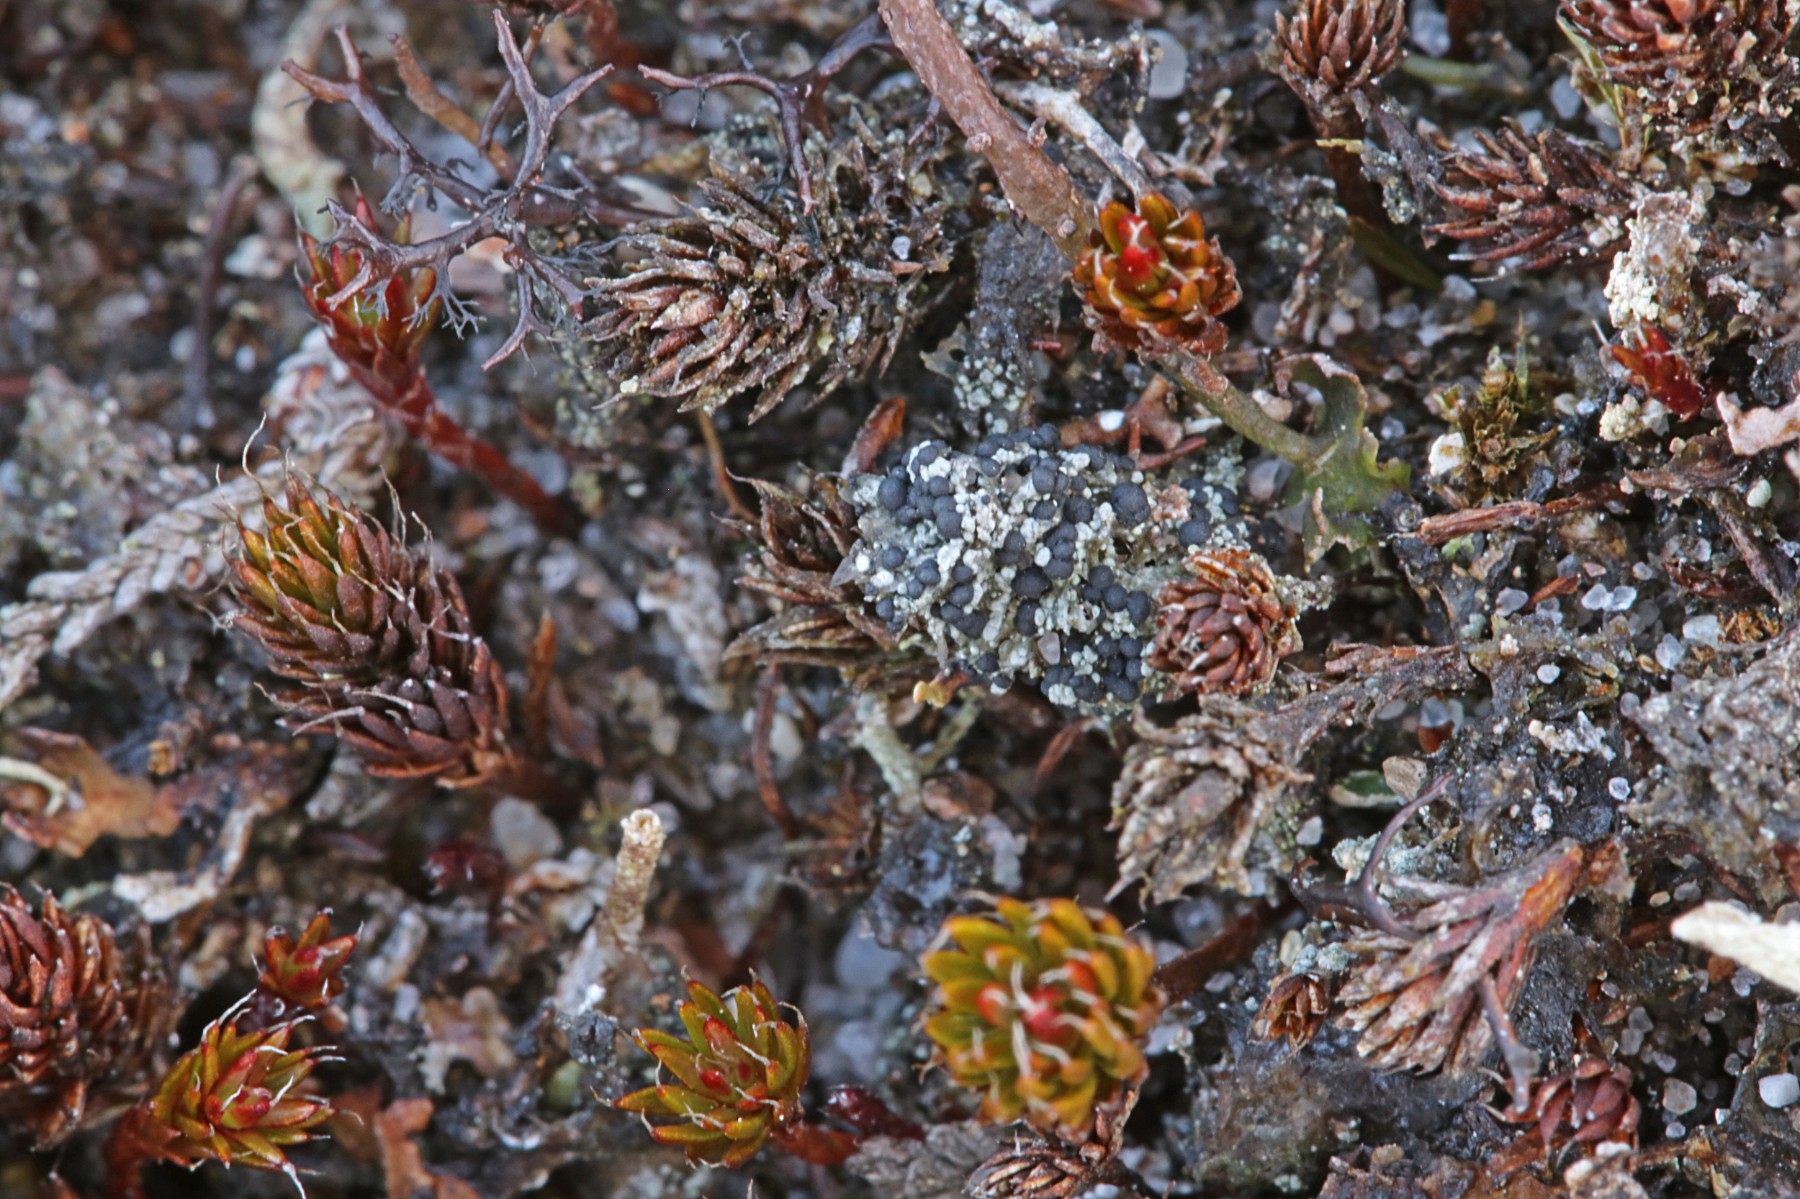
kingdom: Fungi
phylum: Ascomycota
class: Lecanoromycetes
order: Lecanorales
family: Byssolomataceae
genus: Micarea
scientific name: Micarea lignaria
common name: tørve-knaplav
